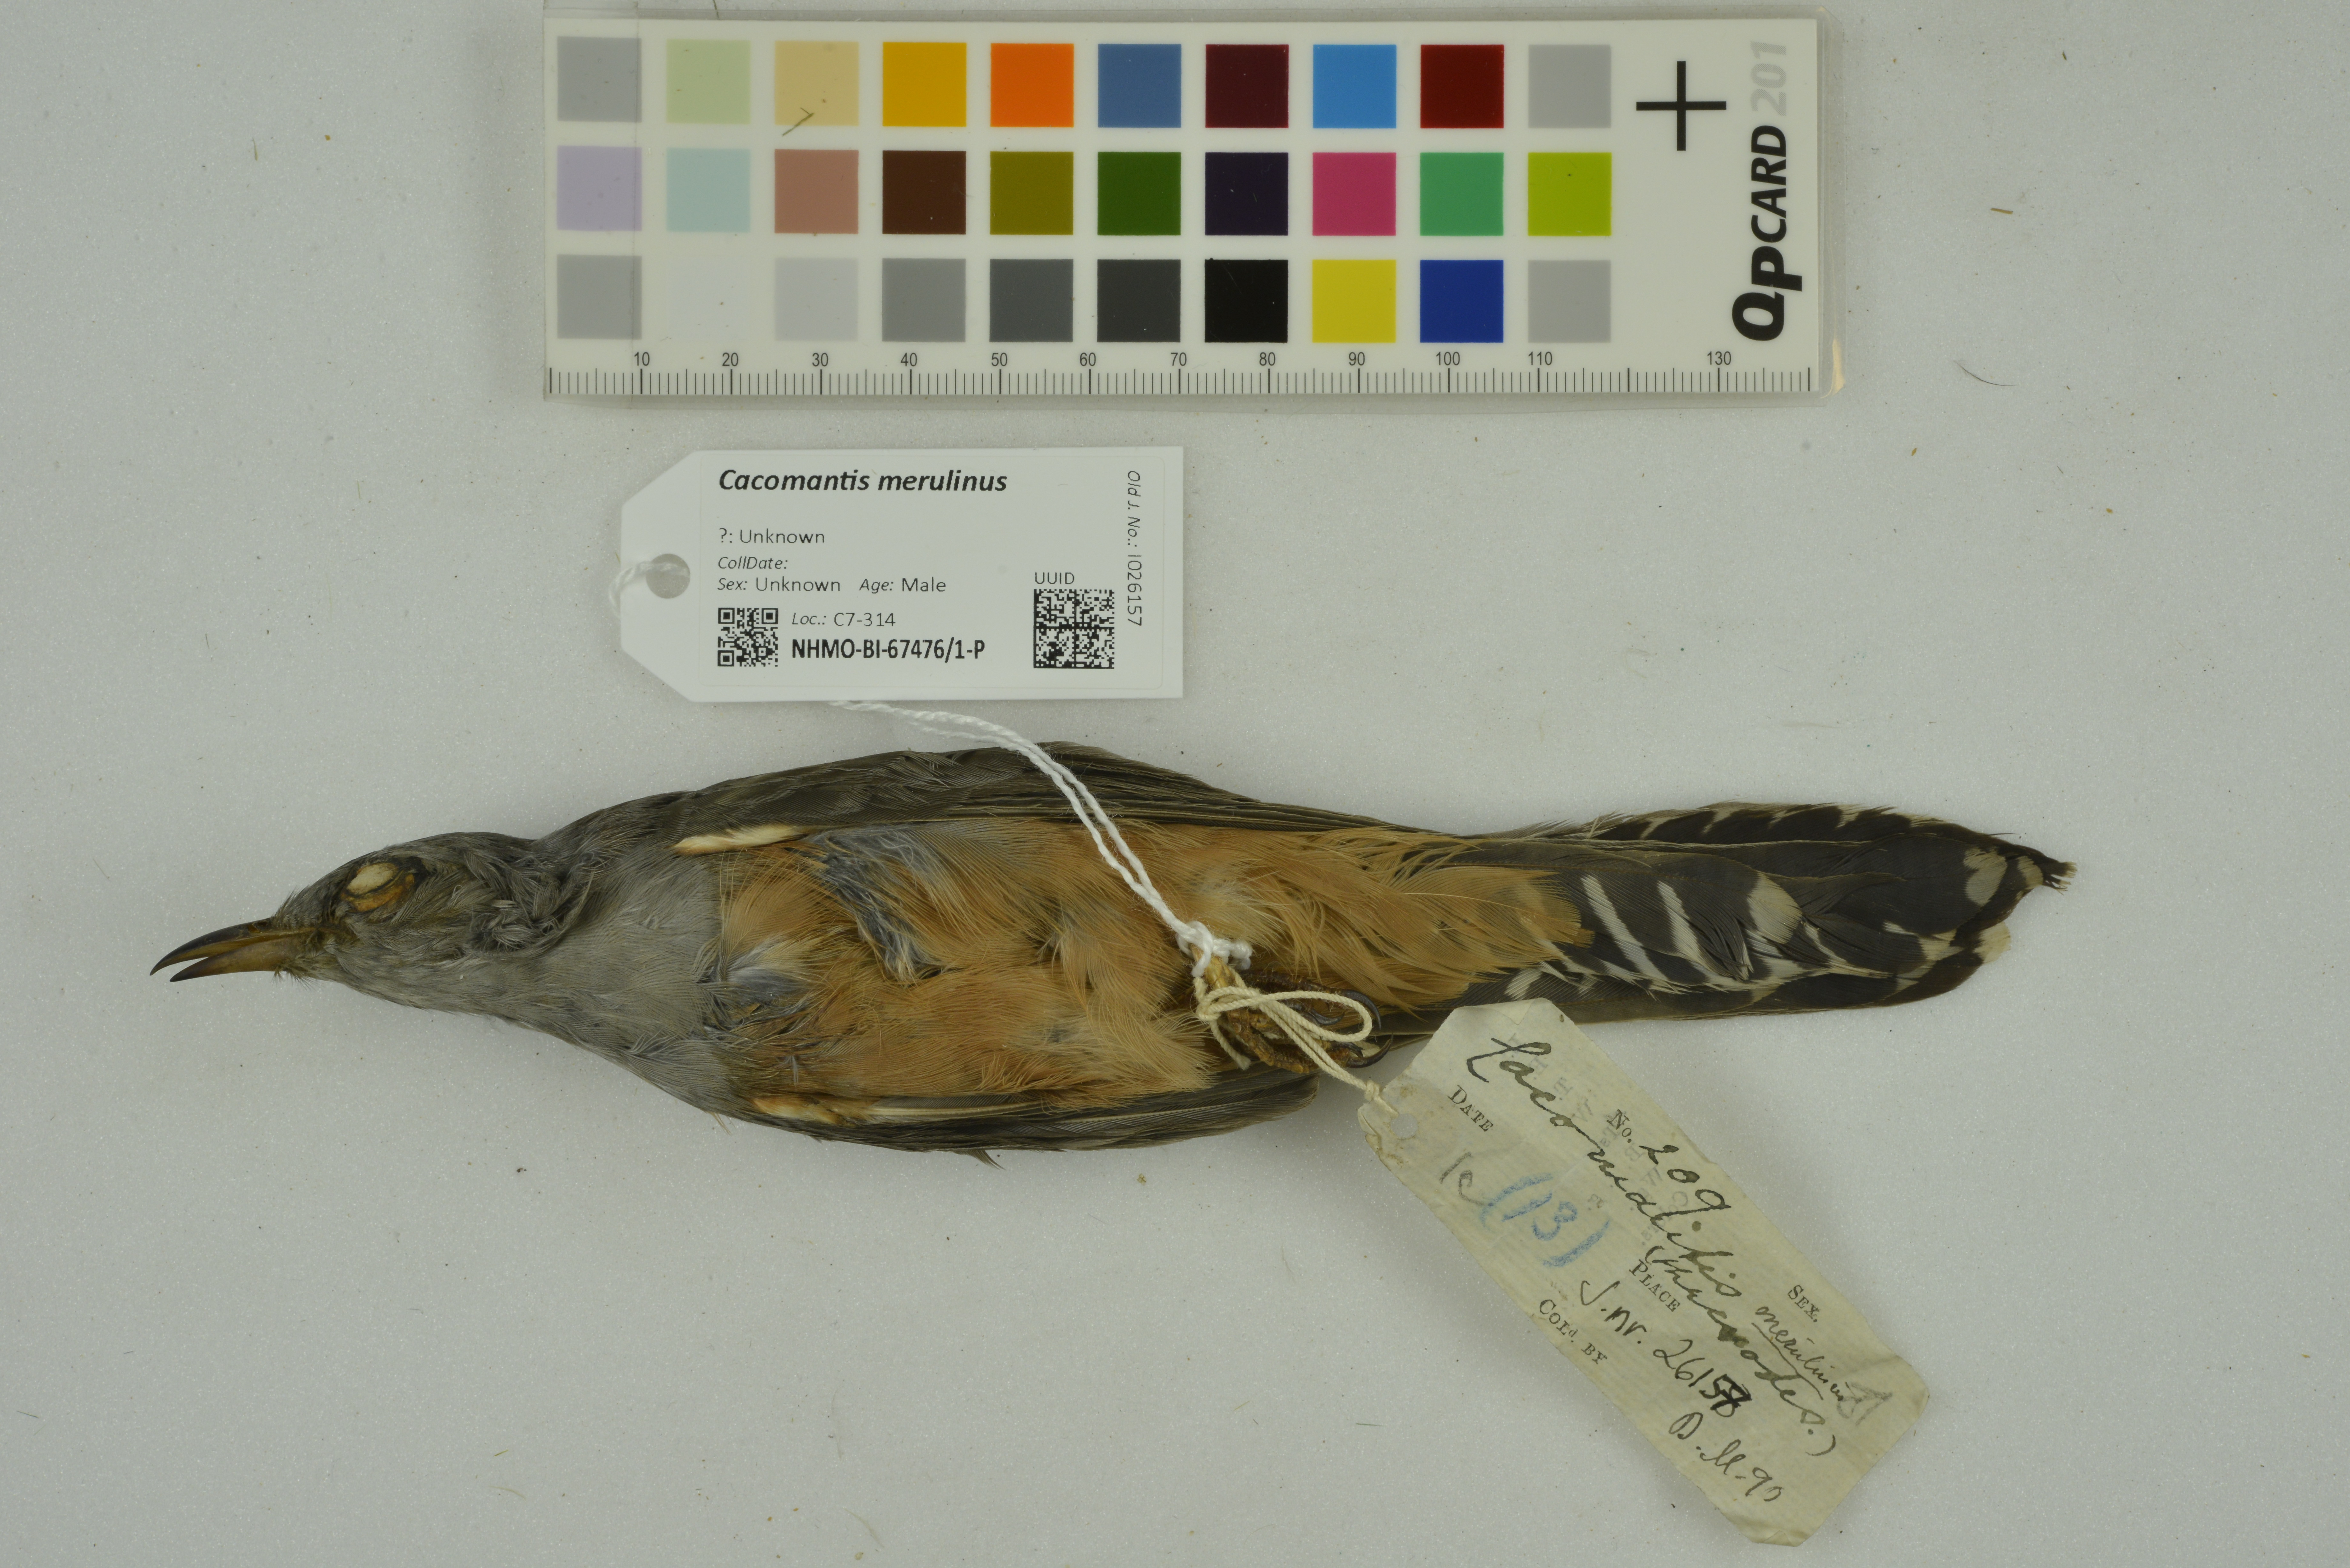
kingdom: Animalia
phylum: Chordata
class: Aves
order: Cuculiformes
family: Cuculidae
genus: Cacomantis
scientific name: Cacomantis merulinus
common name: Plaintive cuckoo
